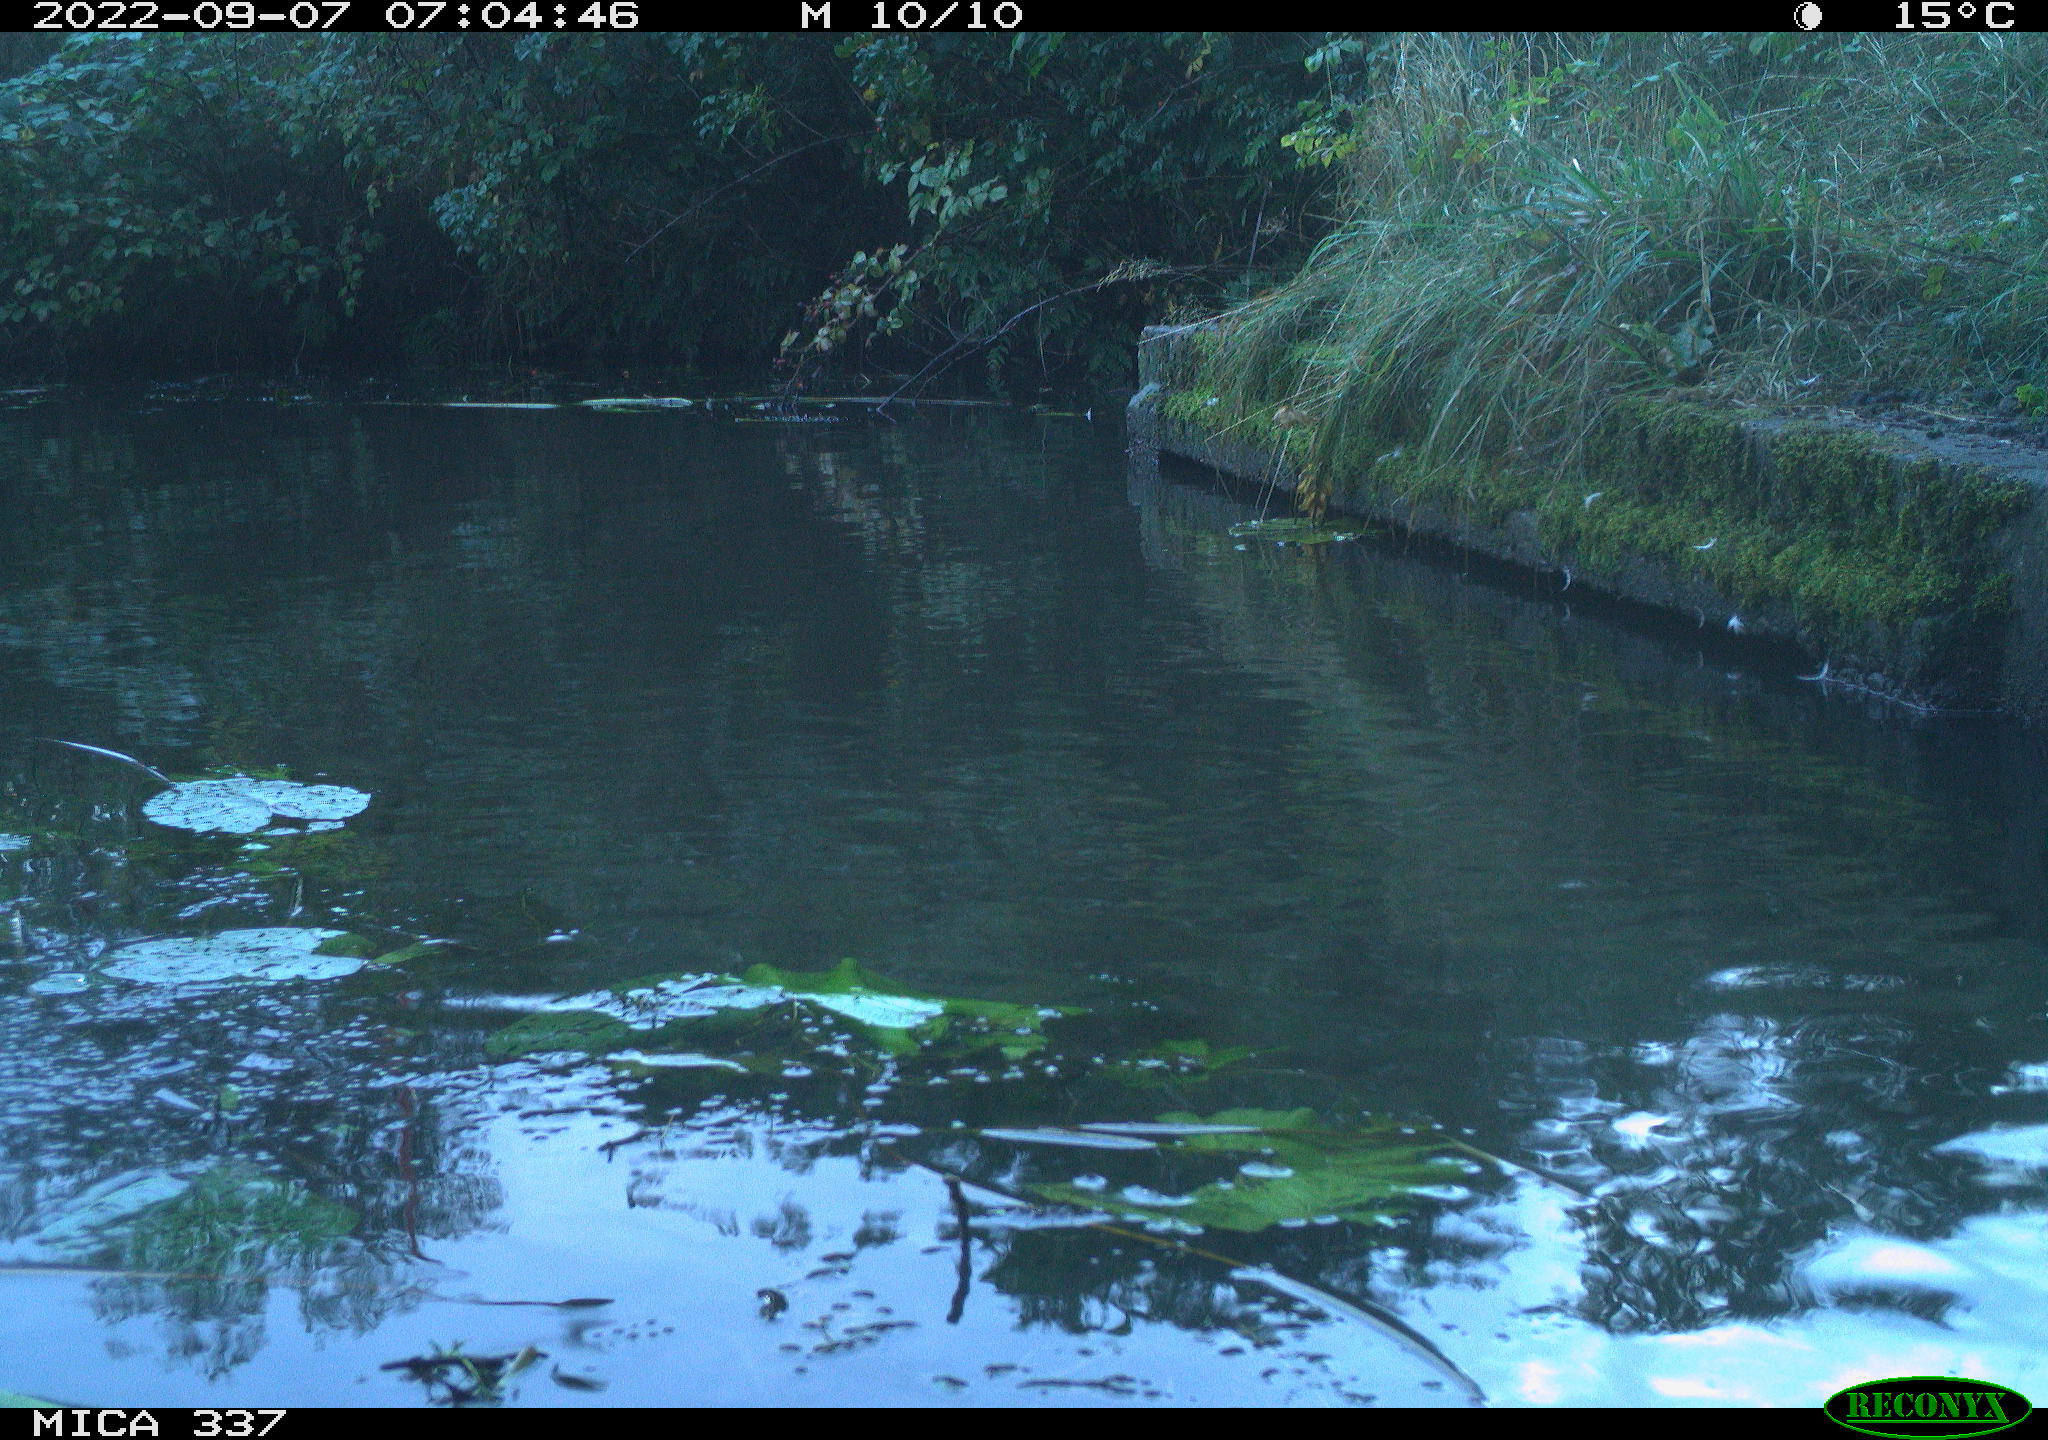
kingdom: Animalia
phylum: Chordata
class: Aves
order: Gruiformes
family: Rallidae
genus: Gallinula
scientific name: Gallinula chloropus
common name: Common moorhen
